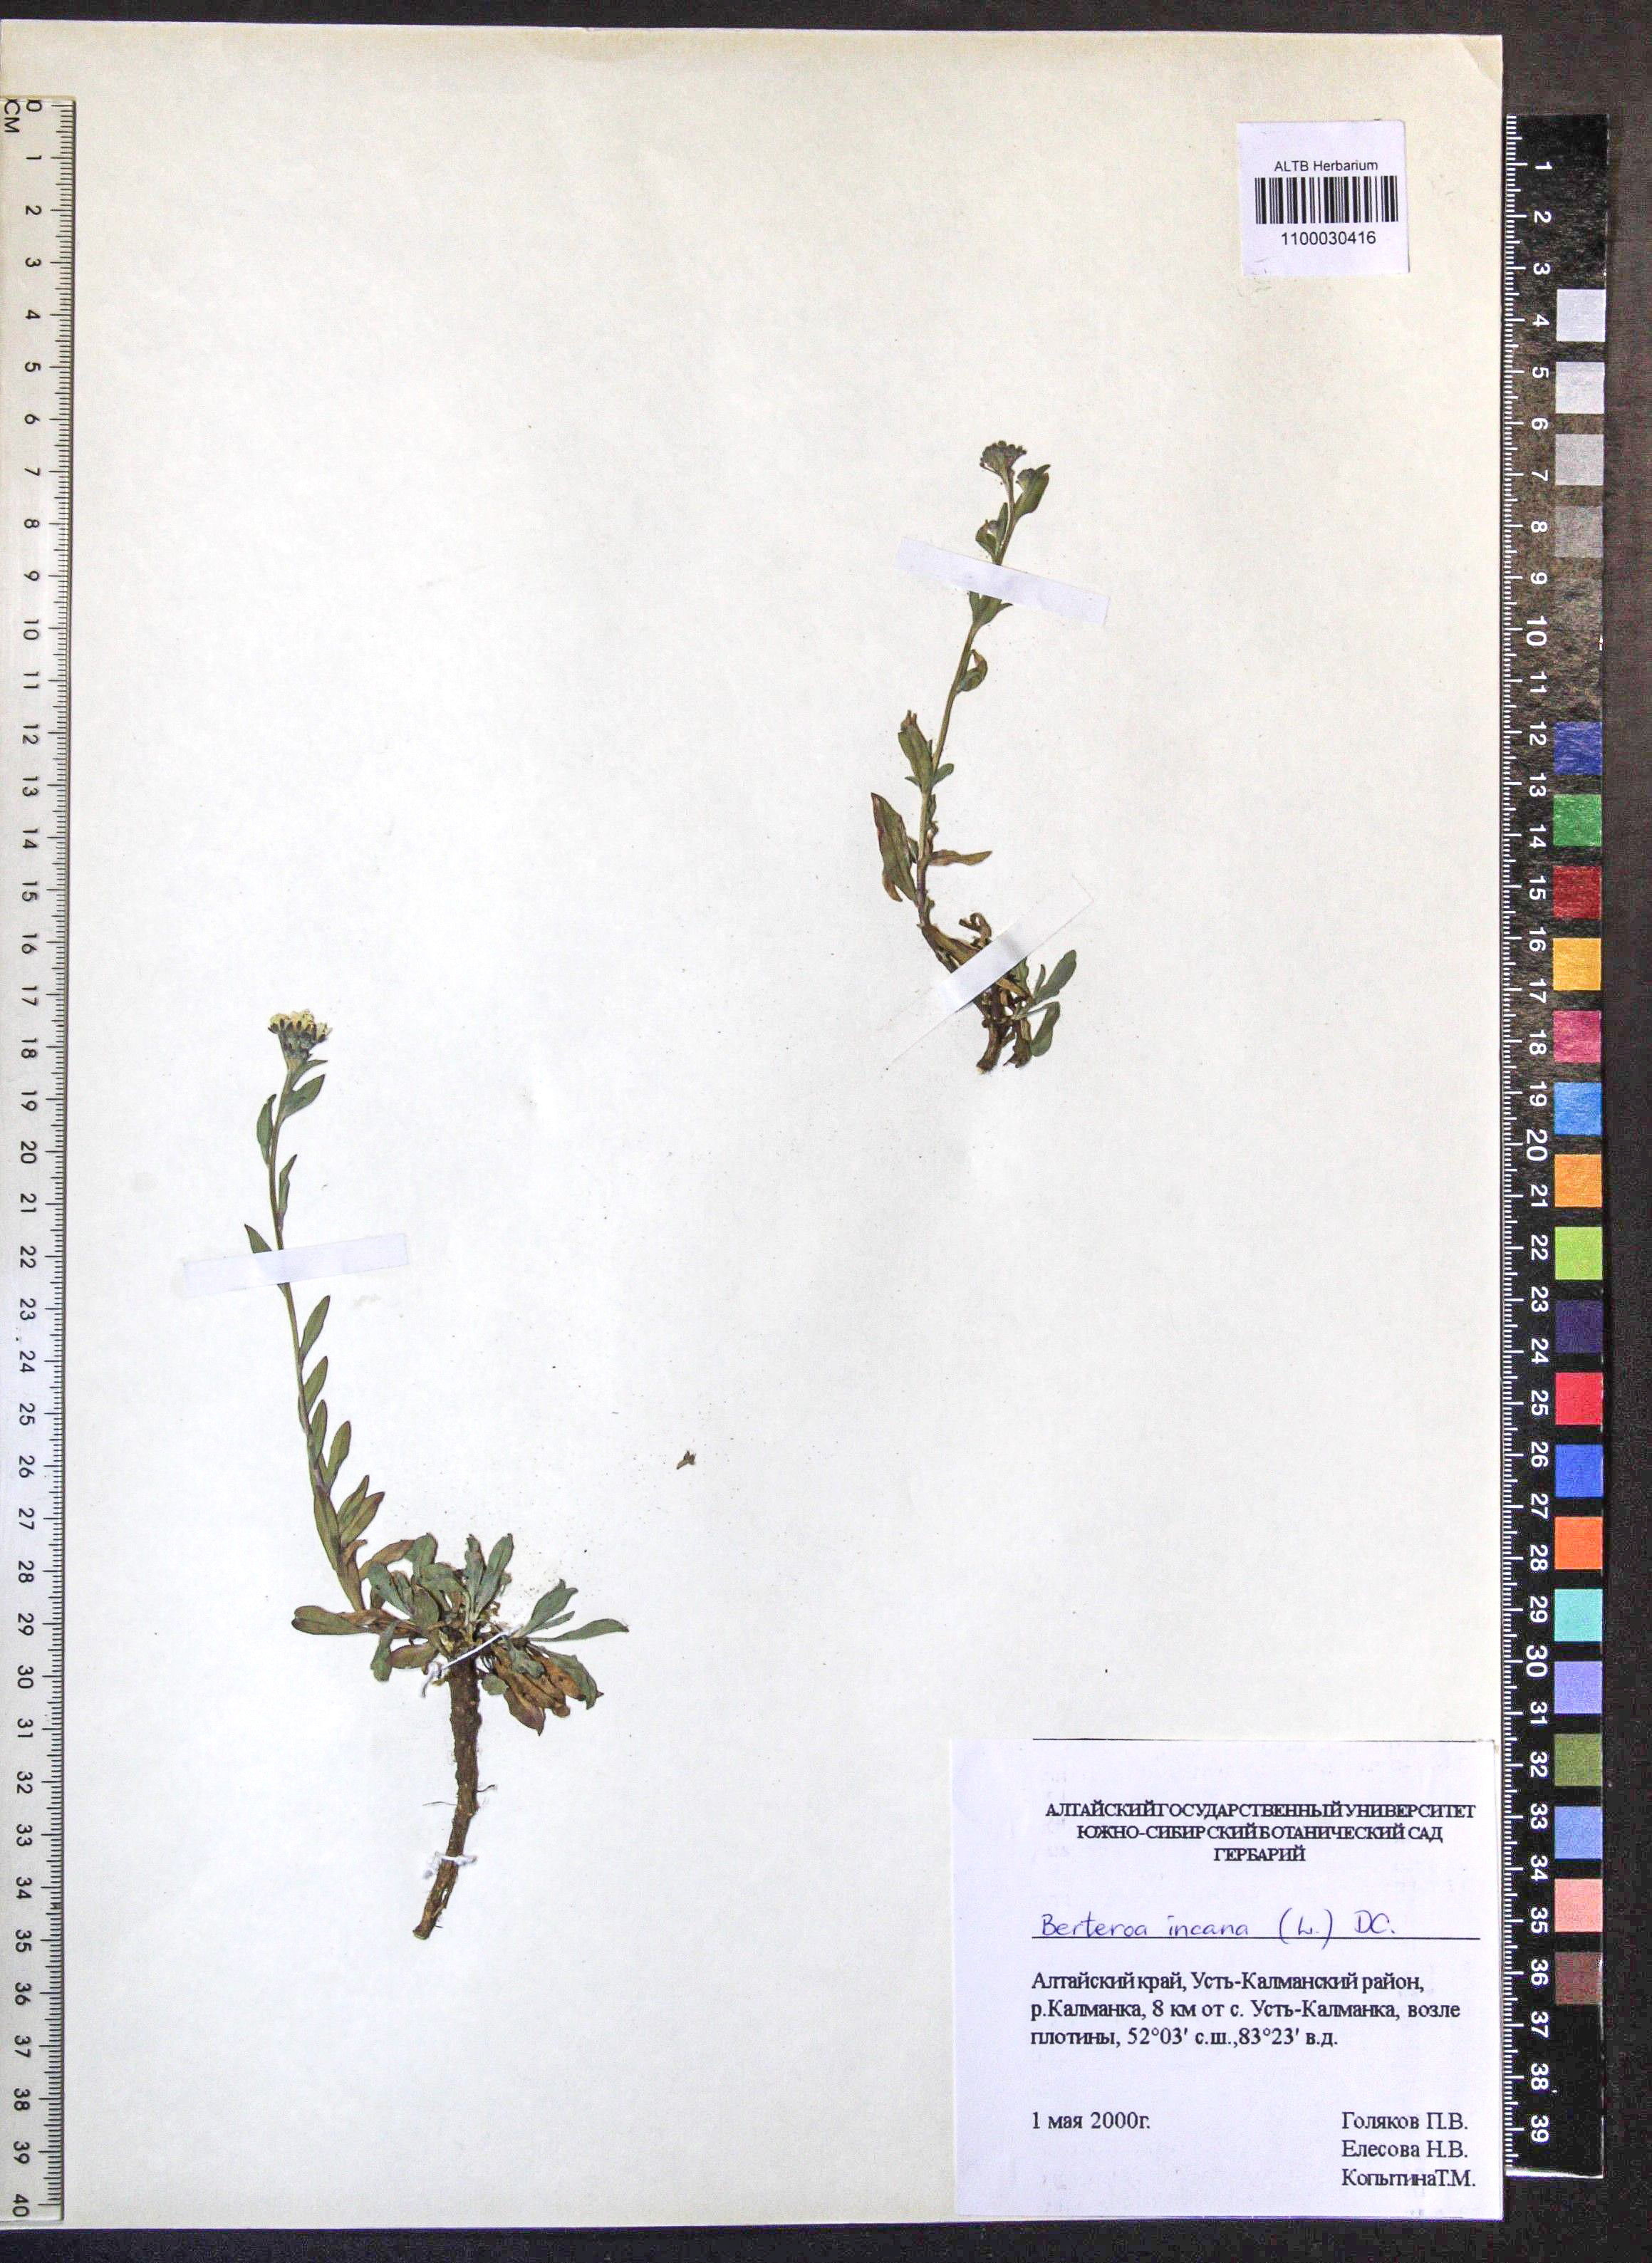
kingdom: Plantae
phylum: Tracheophyta
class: Magnoliopsida
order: Brassicales
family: Brassicaceae
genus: Berteroa
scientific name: Berteroa incana
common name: Hoary alison
